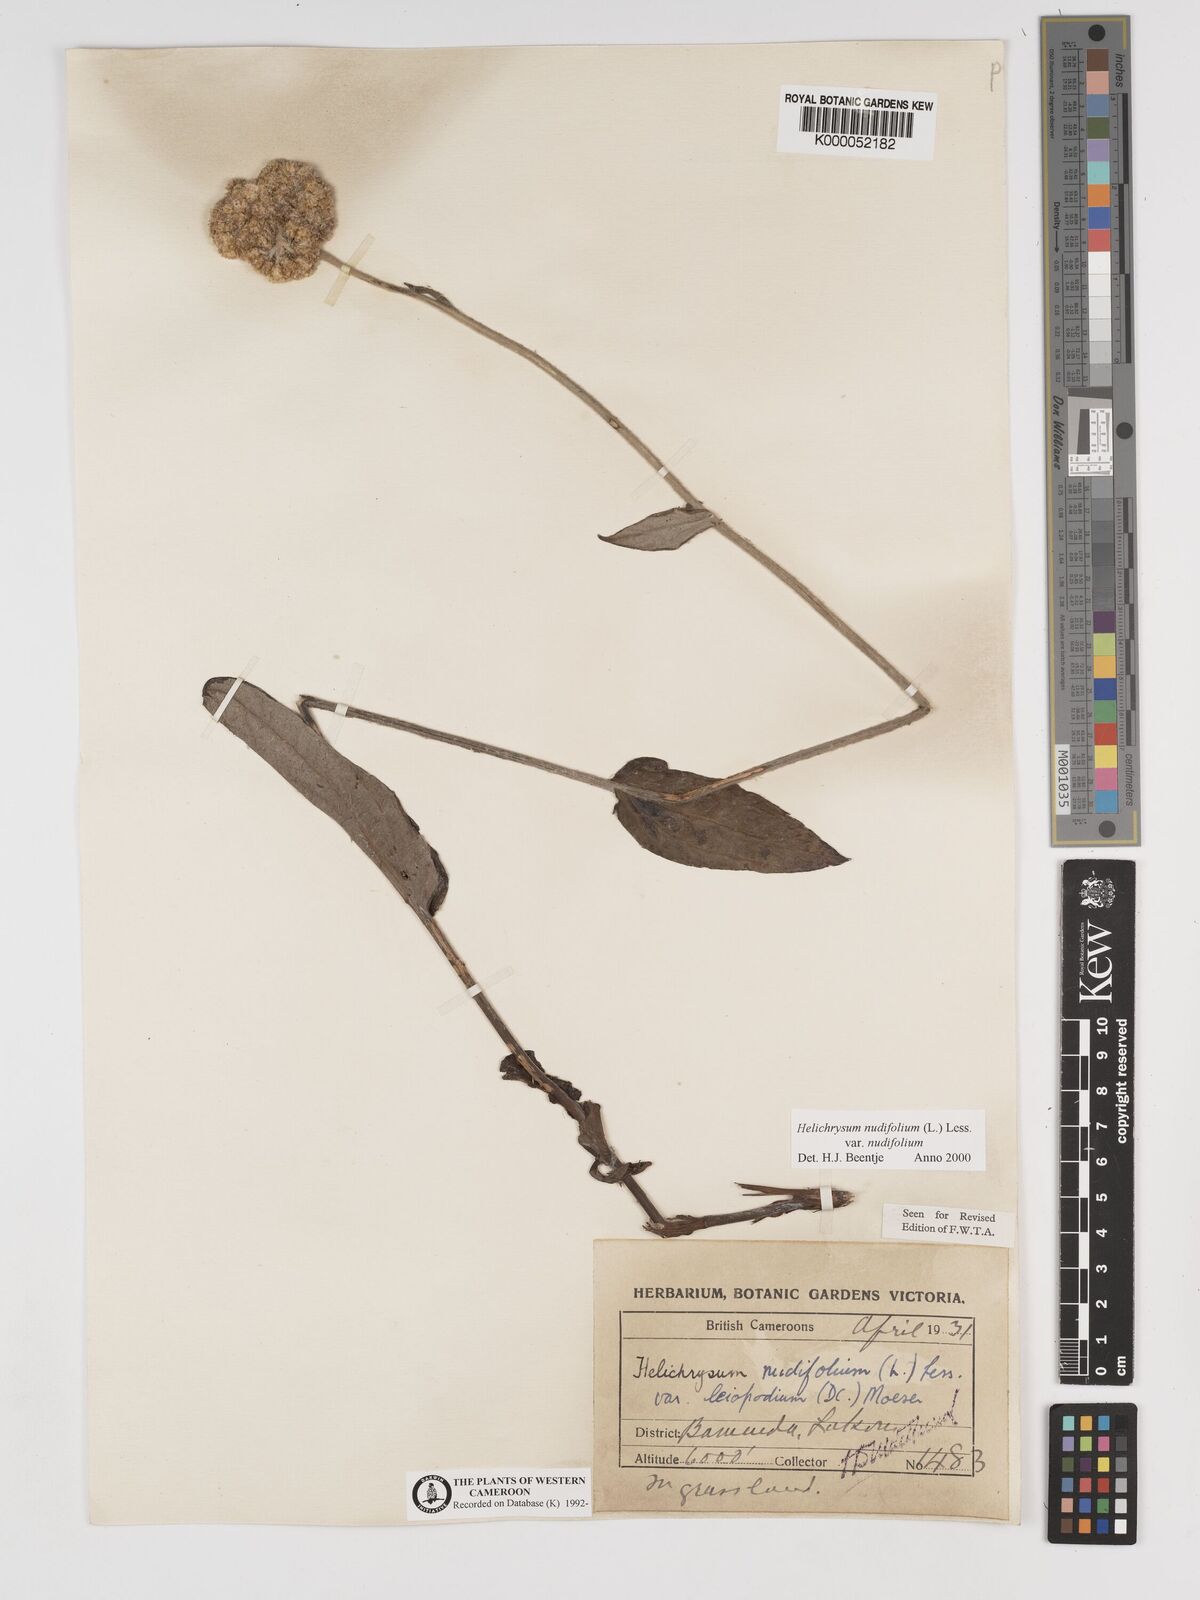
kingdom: Plantae
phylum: Tracheophyta
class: Magnoliopsida
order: Asterales
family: Asteraceae
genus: Helichrysum
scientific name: Helichrysum nudifolium
